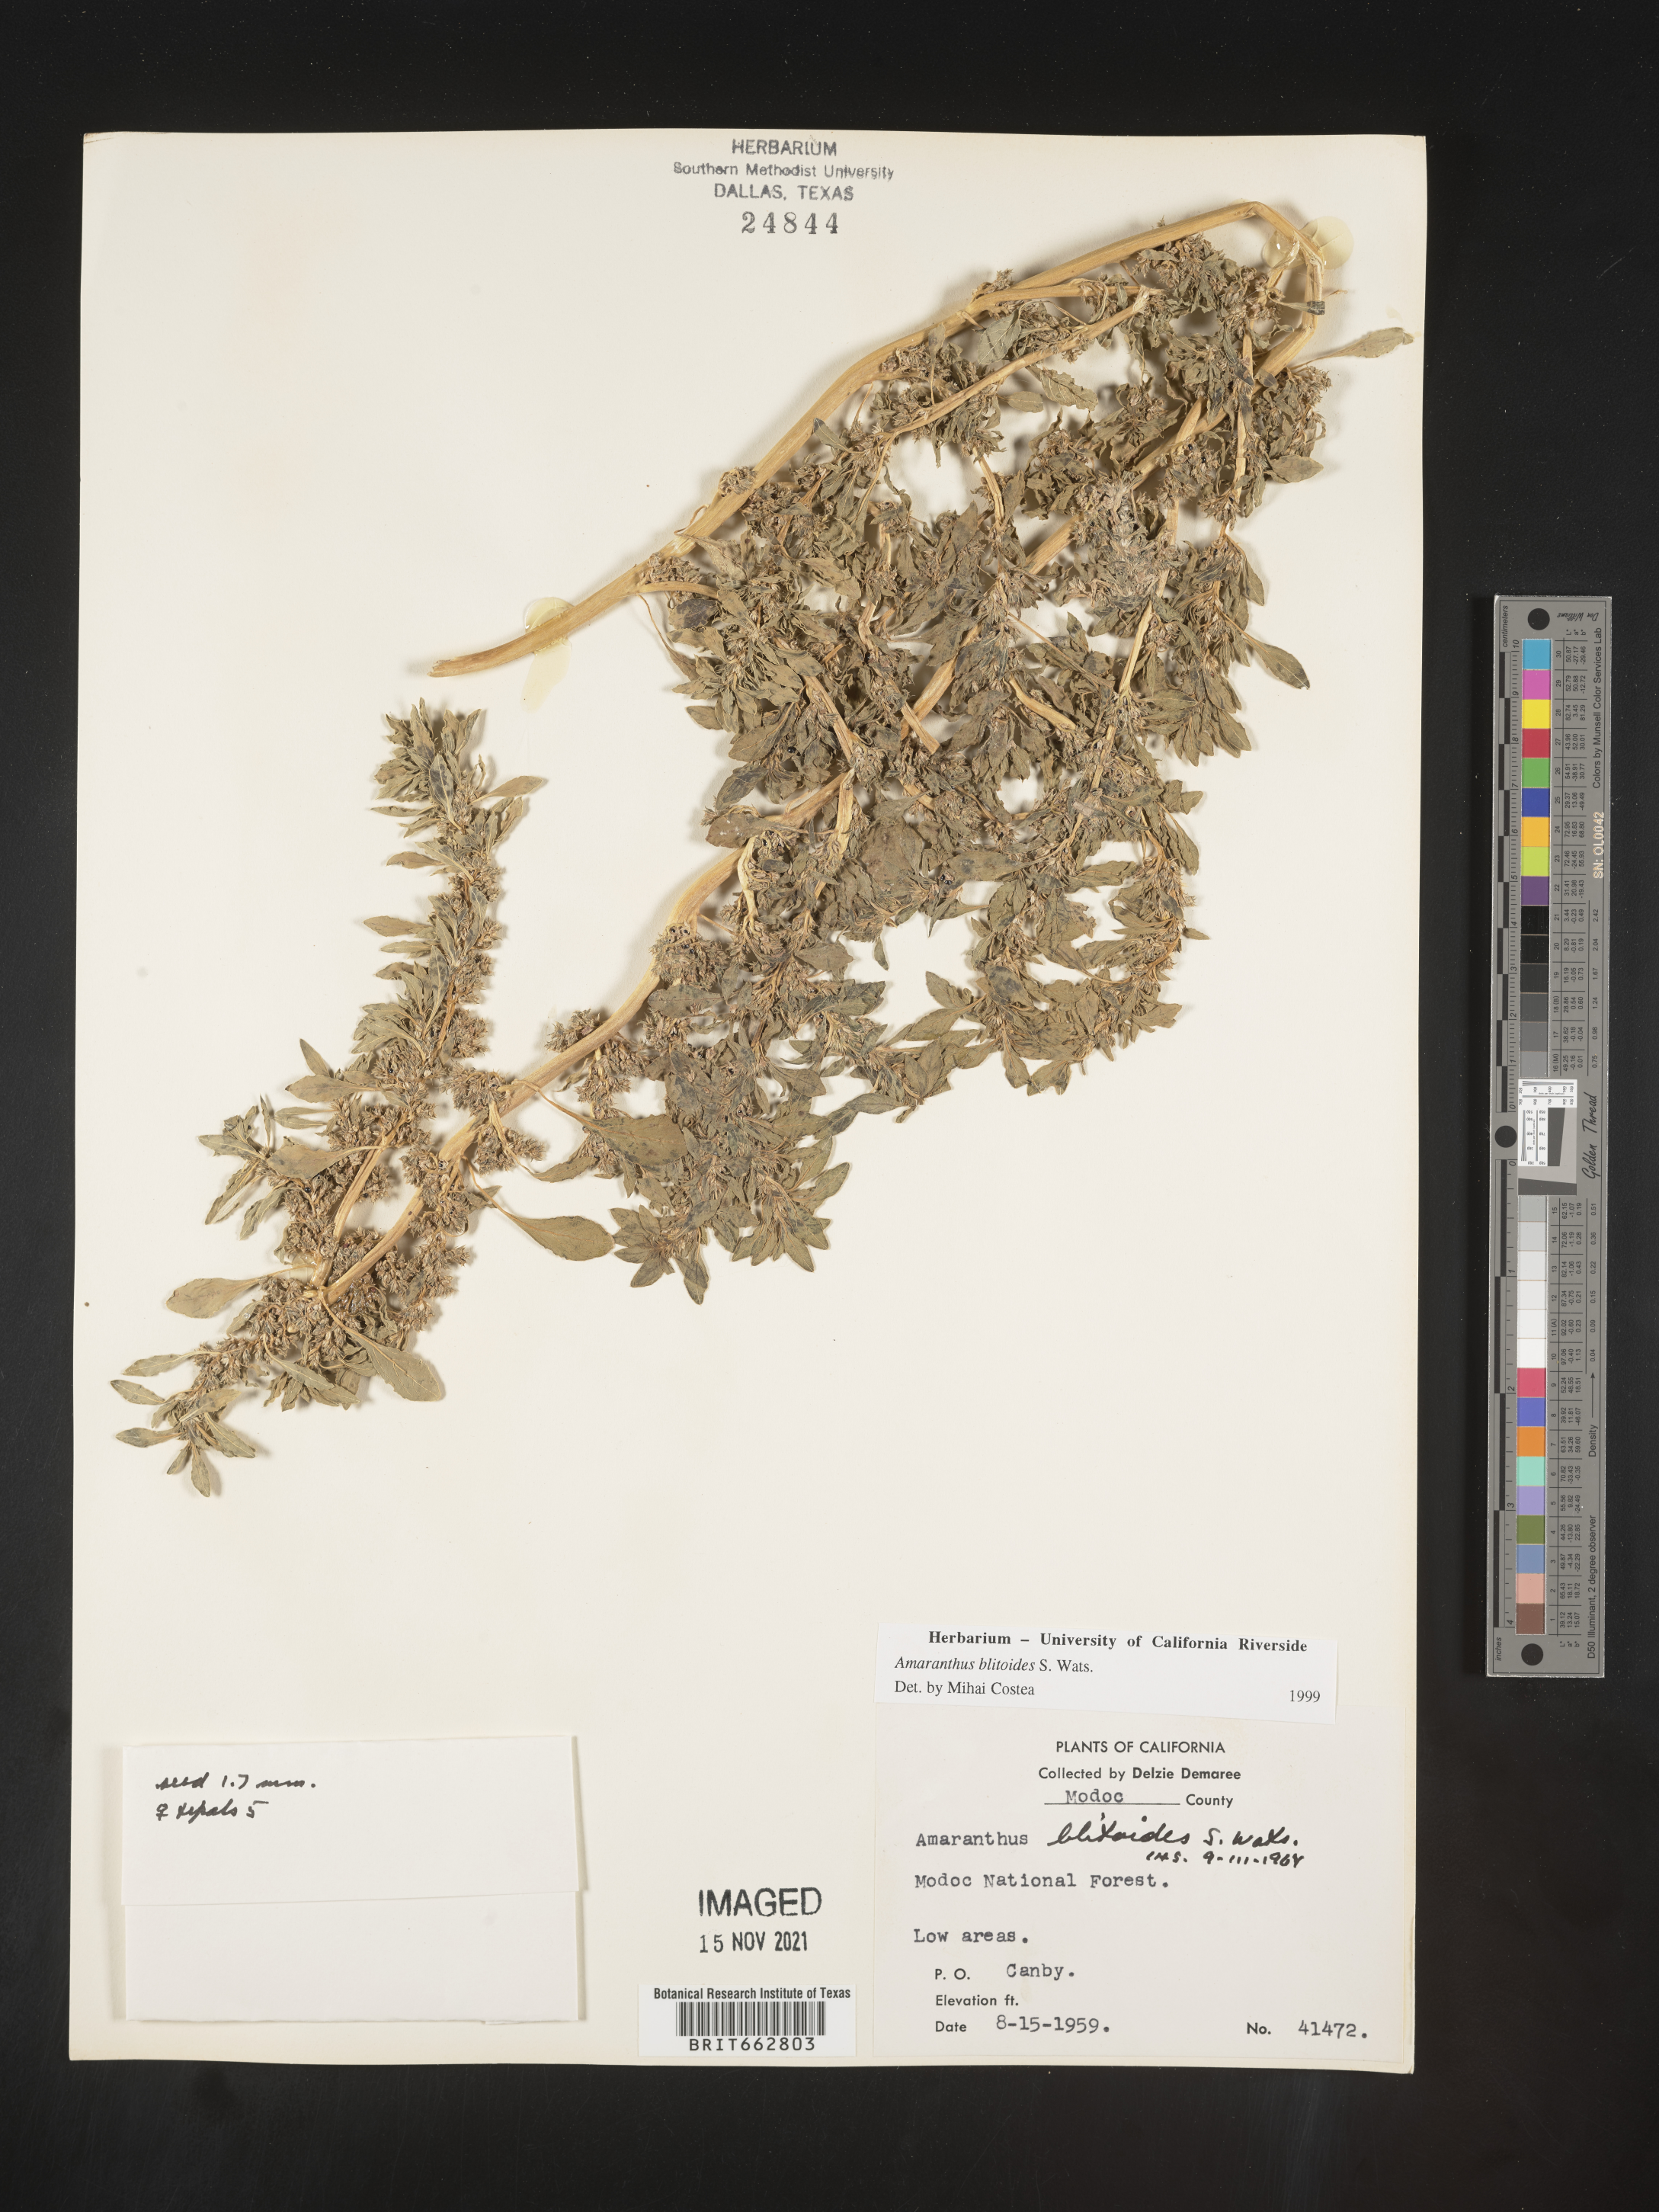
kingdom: Plantae
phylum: Tracheophyta
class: Magnoliopsida
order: Caryophyllales
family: Amaranthaceae
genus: Amaranthus
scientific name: Amaranthus blitoides
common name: Prostrate pigweed
